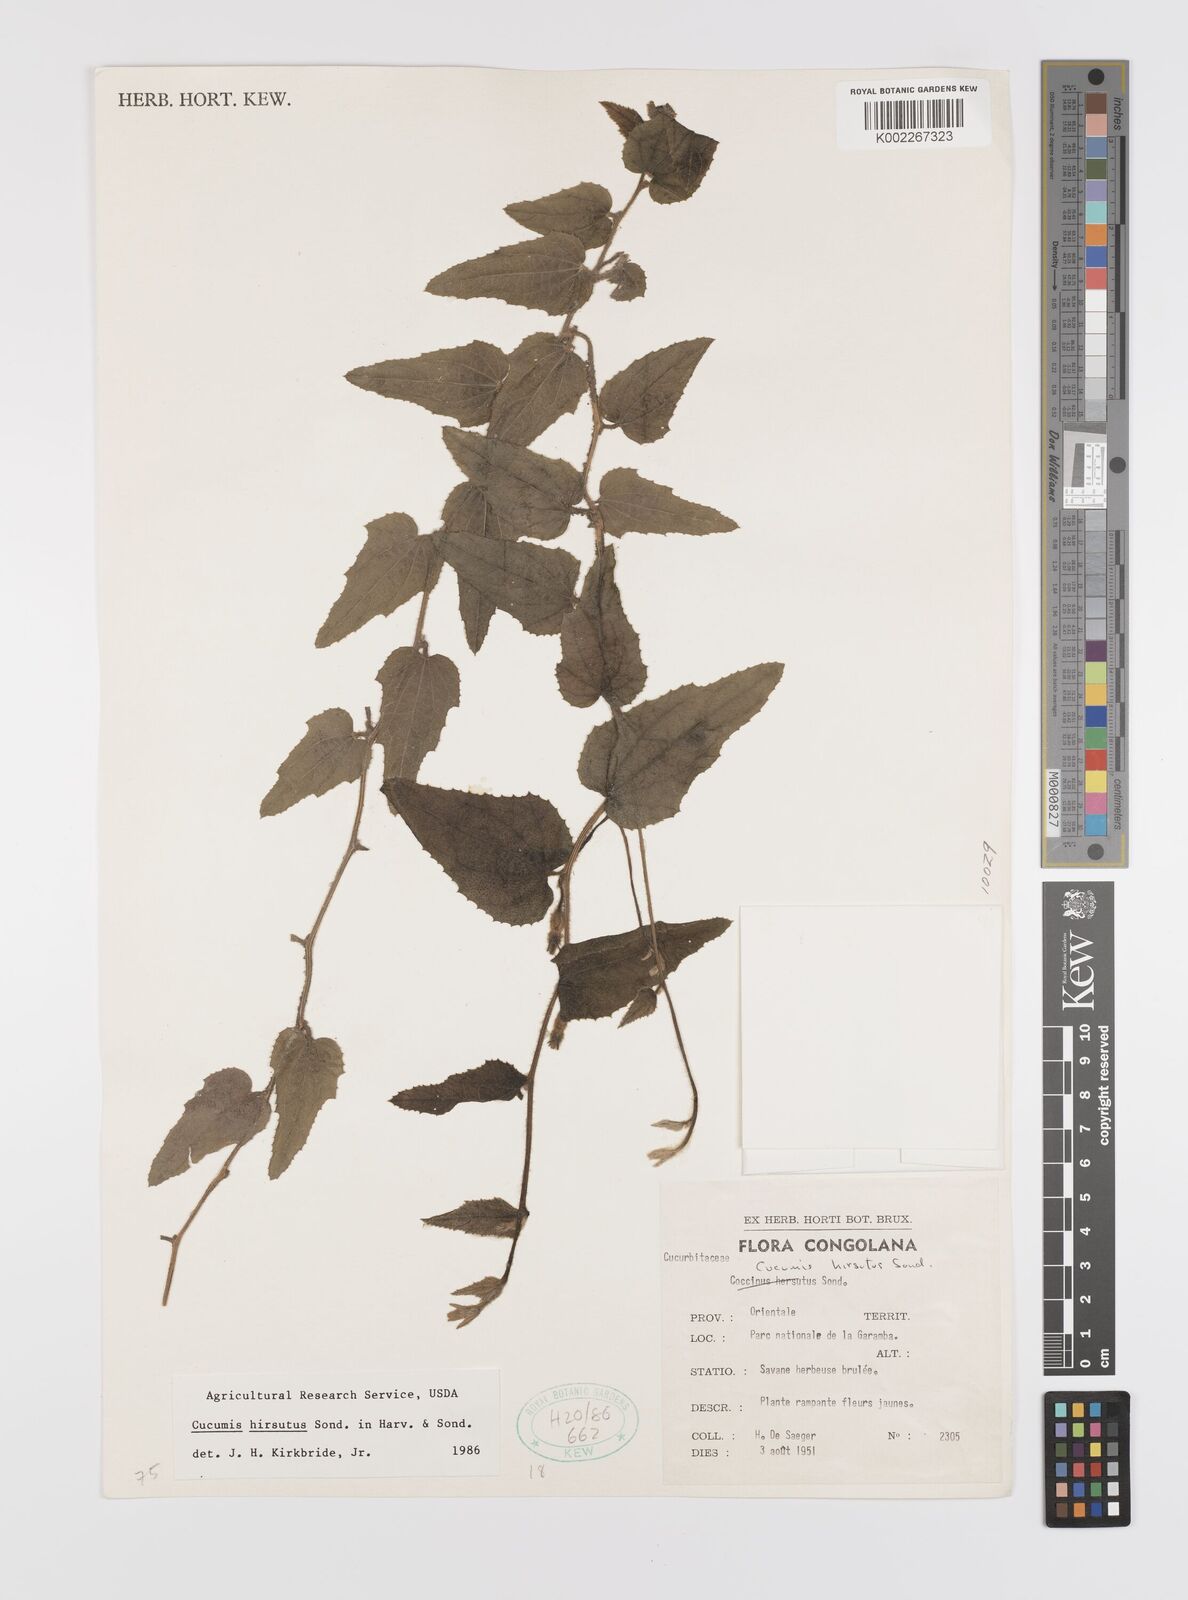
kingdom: Plantae
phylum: Tracheophyta
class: Magnoliopsida
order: Cucurbitales
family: Cucurbitaceae
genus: Cucumis
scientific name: Cucumis hirsutus
